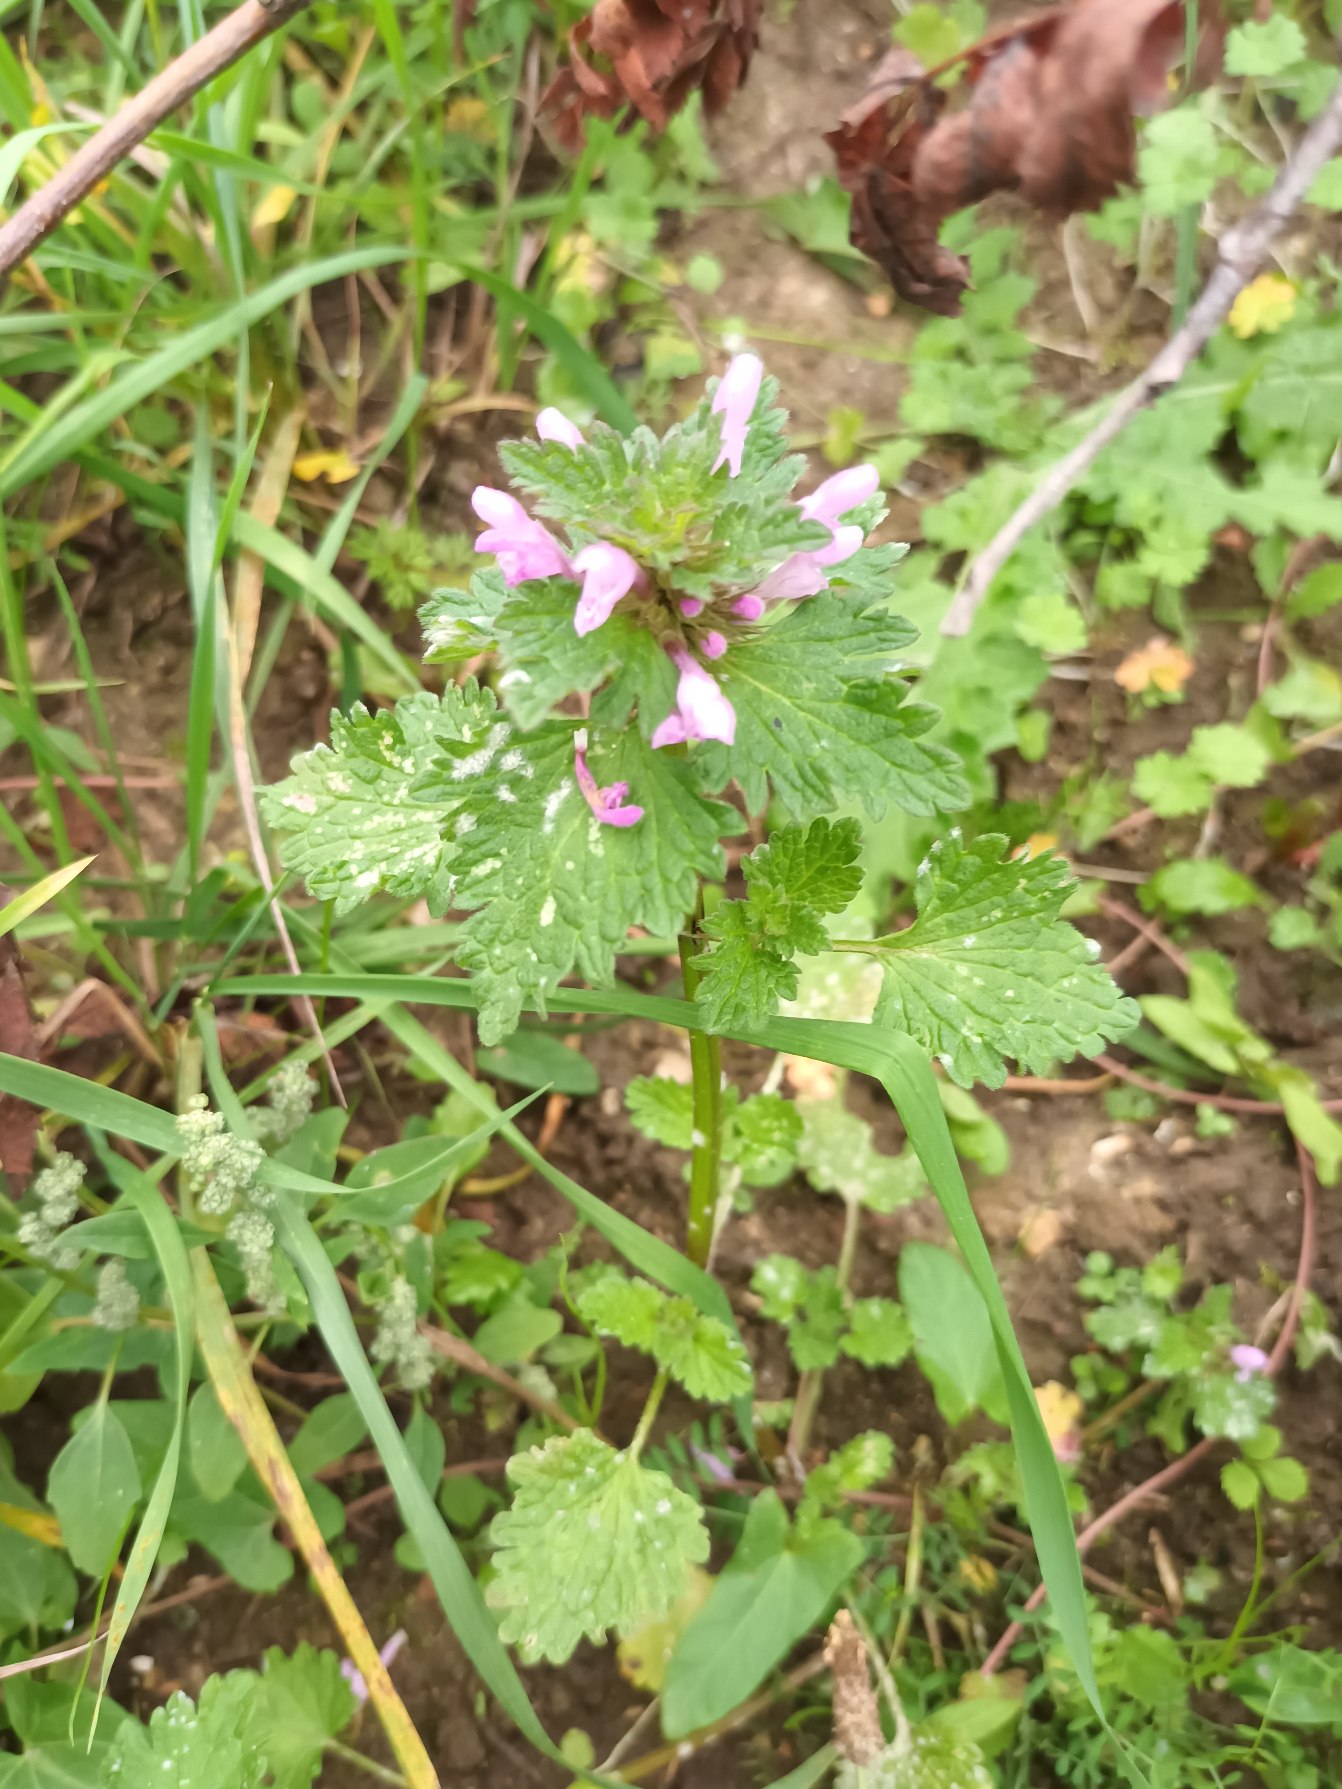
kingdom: Plantae
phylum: Tracheophyta
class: Magnoliopsida
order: Lamiales
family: Lamiaceae
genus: Lamium
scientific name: Lamium hybridum
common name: Fliget tvetand
